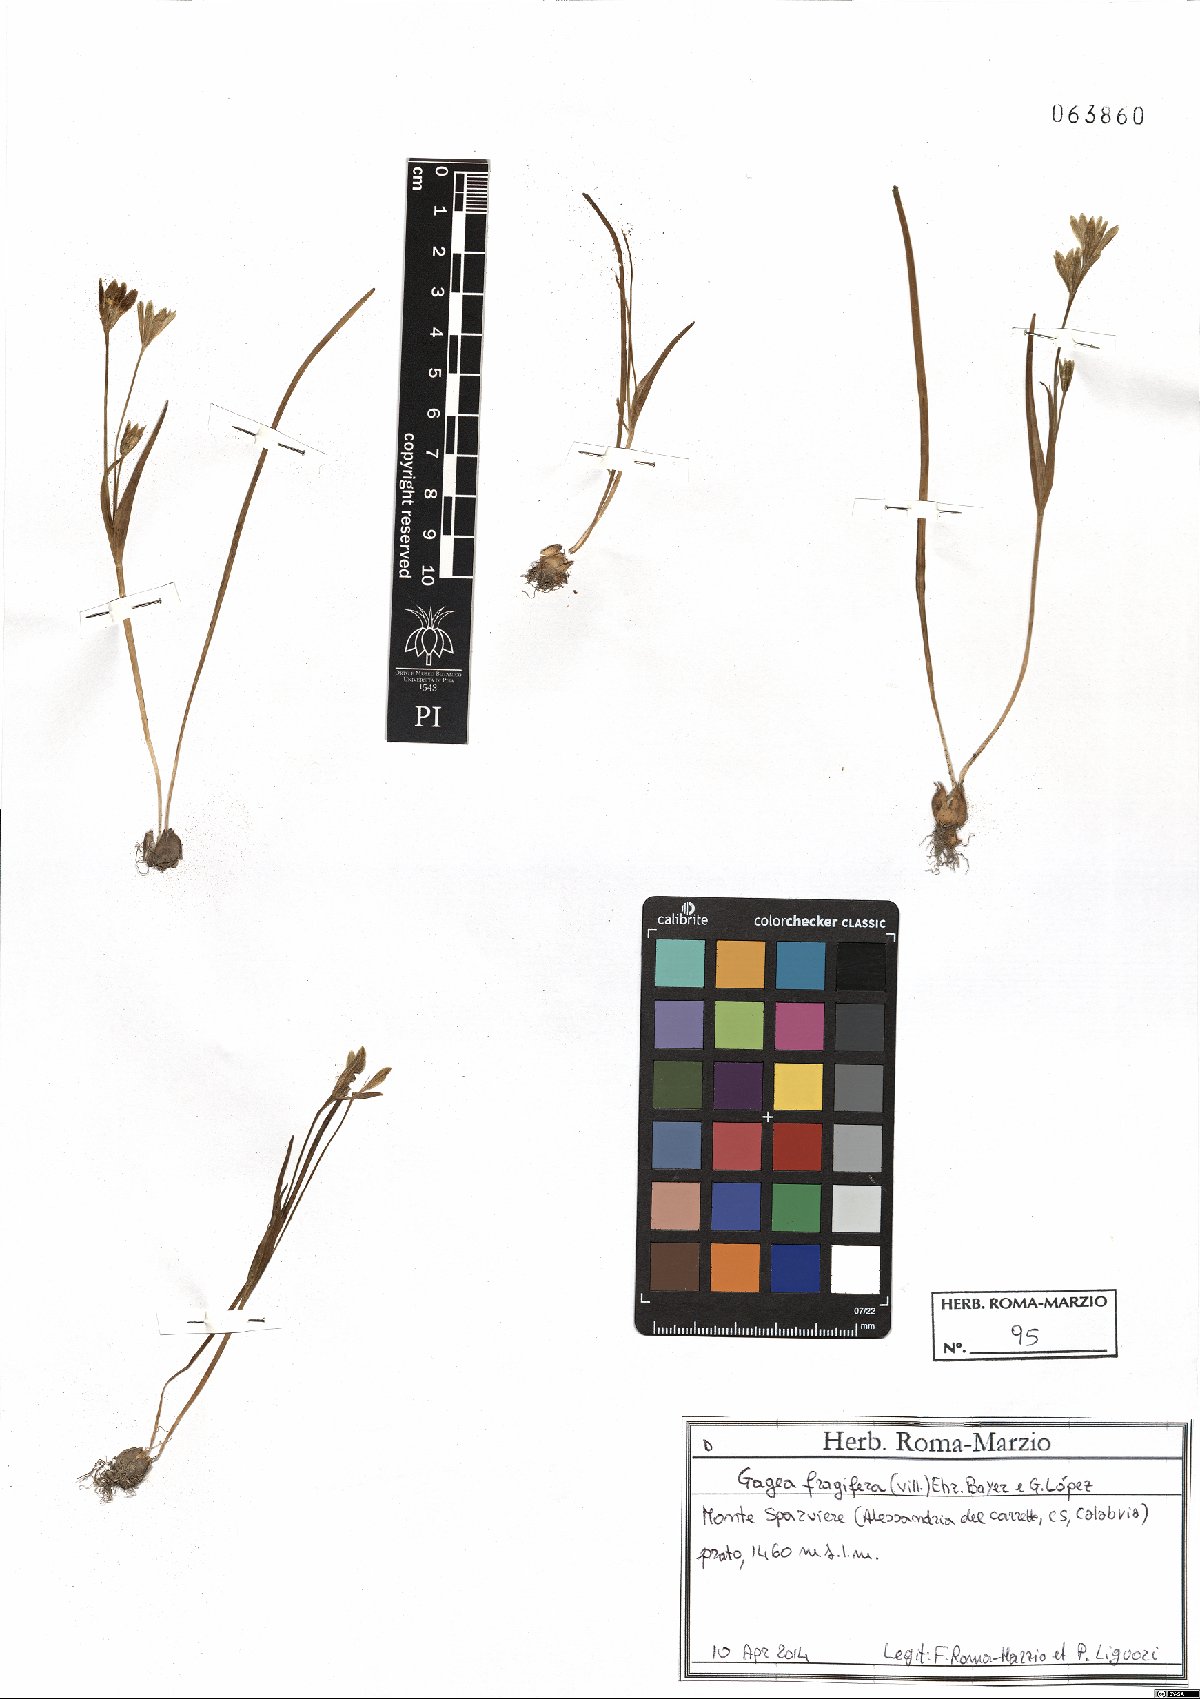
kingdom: Plantae
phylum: Tracheophyta
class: Liliopsida
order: Liliales
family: Liliaceae
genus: Gagea
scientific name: Gagea fragifera
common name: Lily
